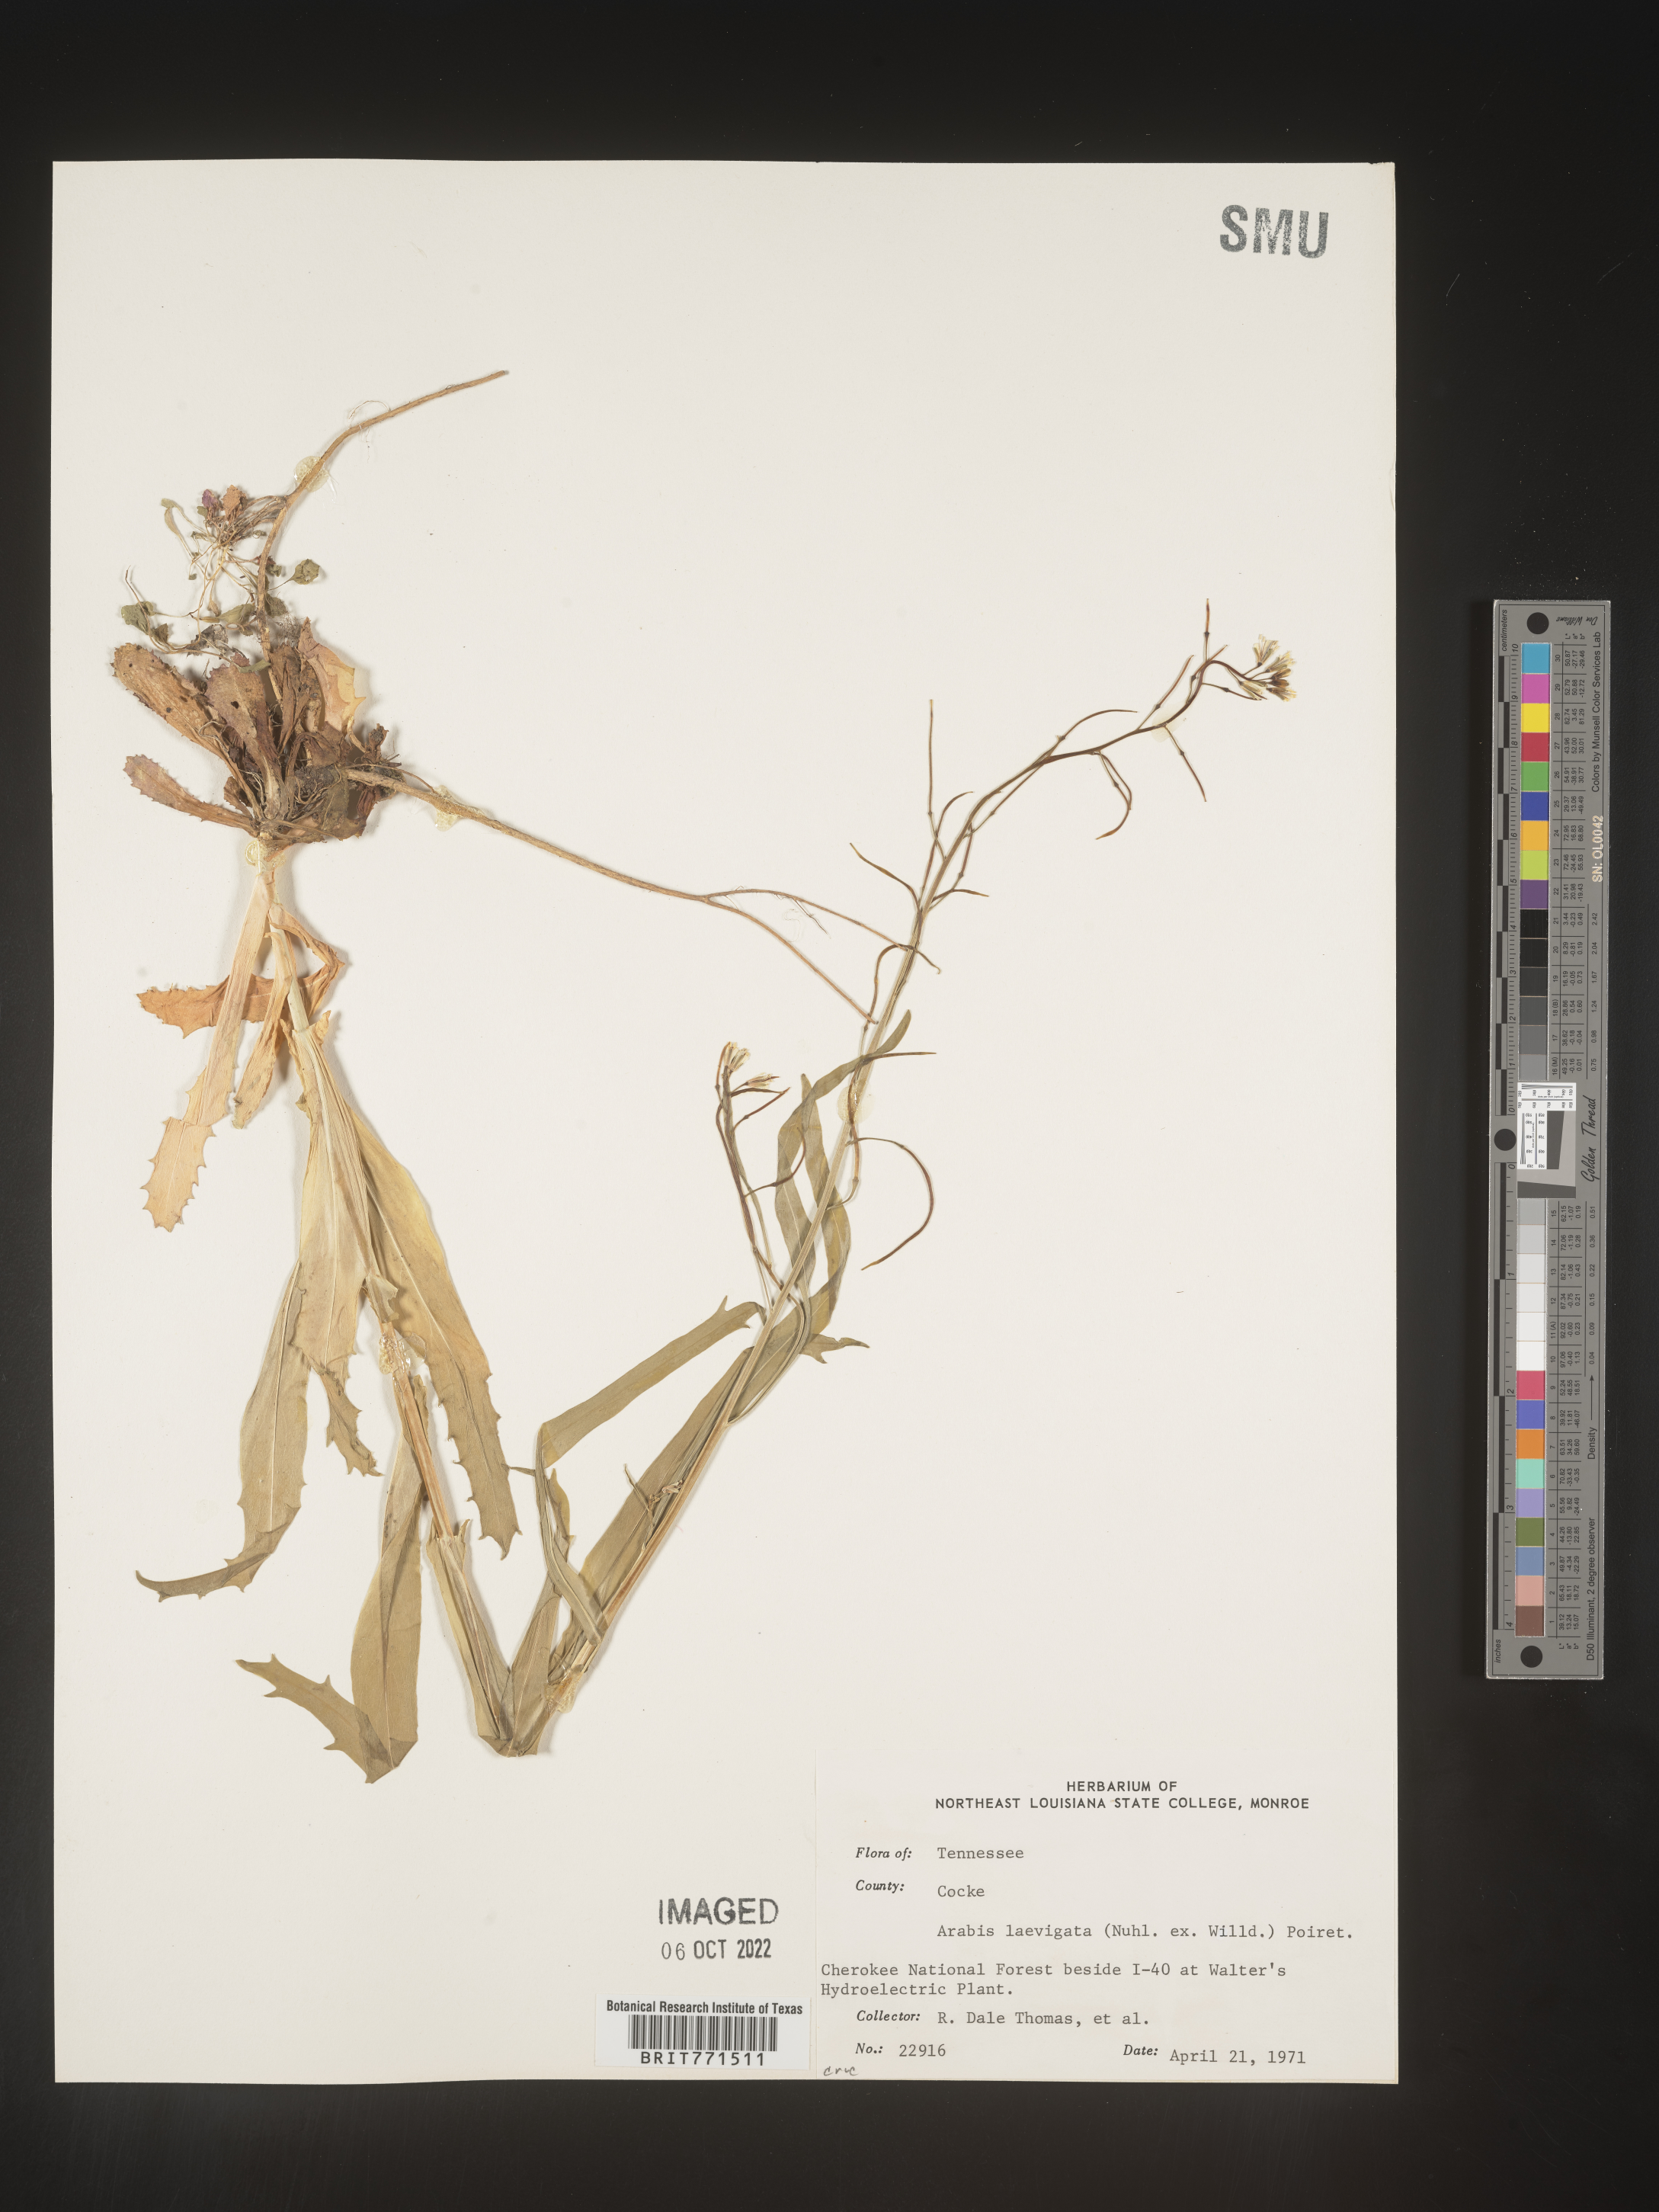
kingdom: Plantae
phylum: Tracheophyta
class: Magnoliopsida
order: Brassicales
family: Brassicaceae
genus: Arabis
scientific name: Arabis laevigata
